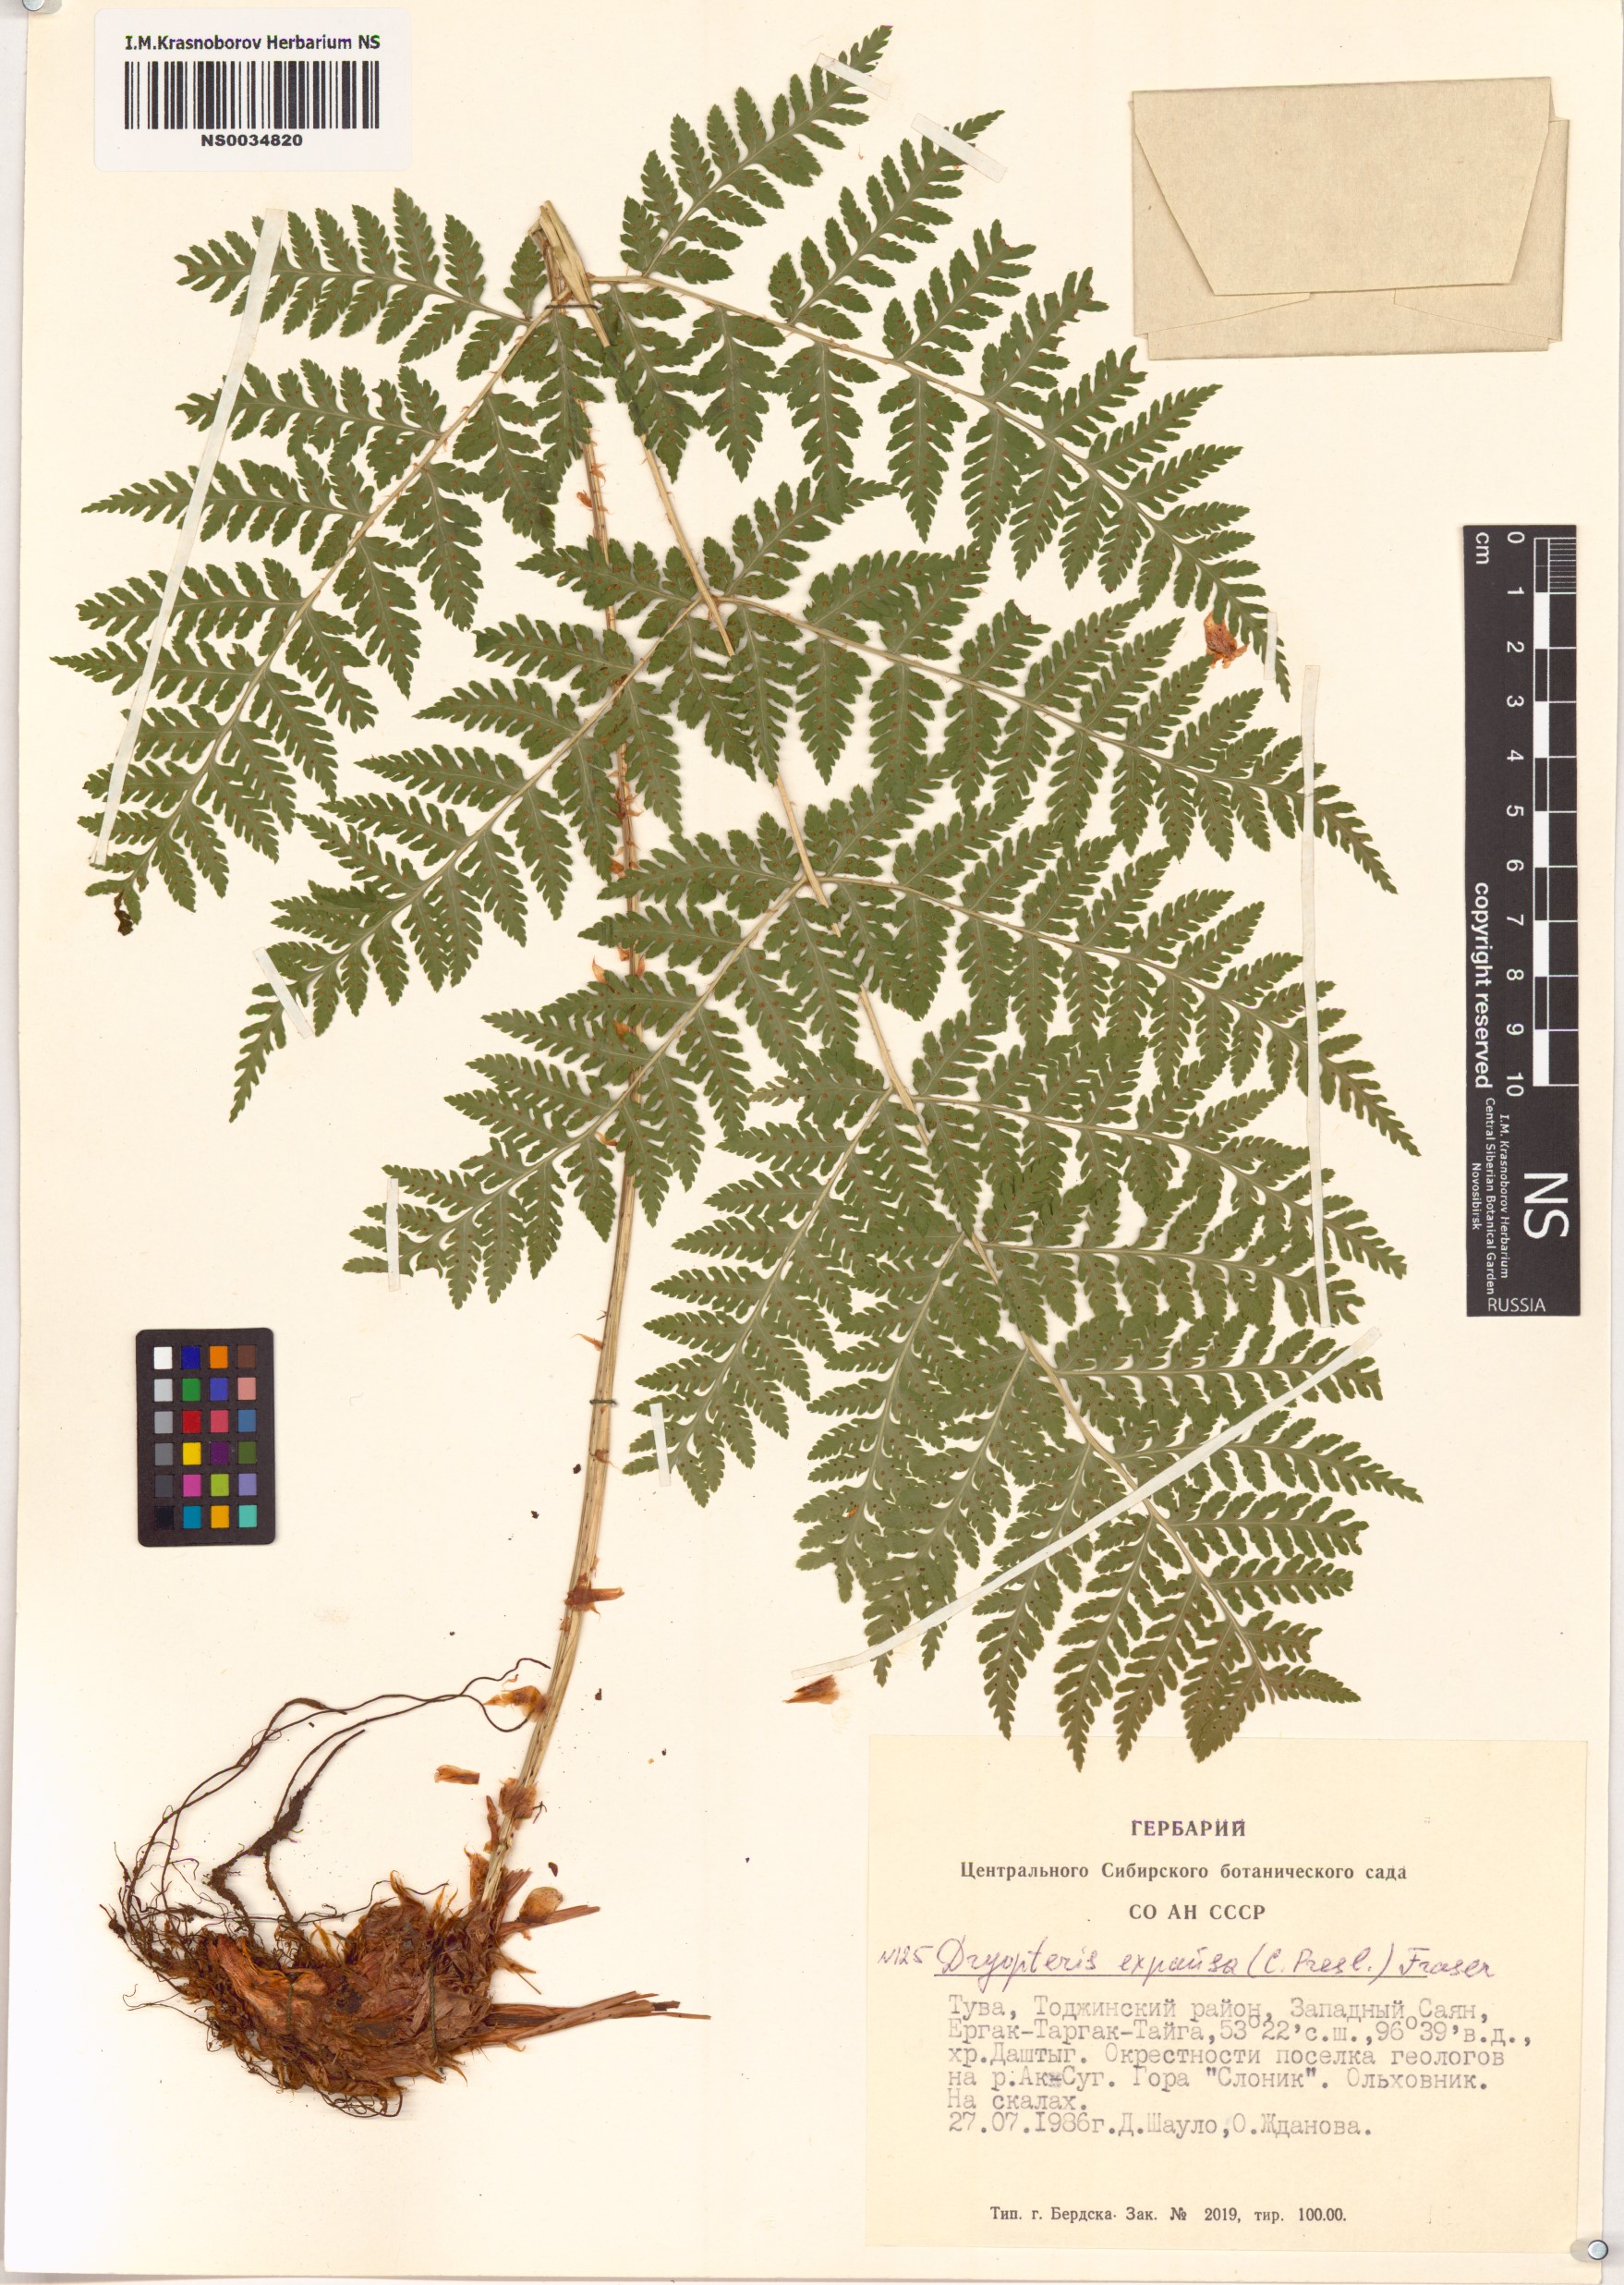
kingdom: Plantae
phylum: Tracheophyta
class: Polypodiopsida
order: Polypodiales
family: Dryopteridaceae
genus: Dryopteris
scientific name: Dryopteris expansa
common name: Northern buckler fern
